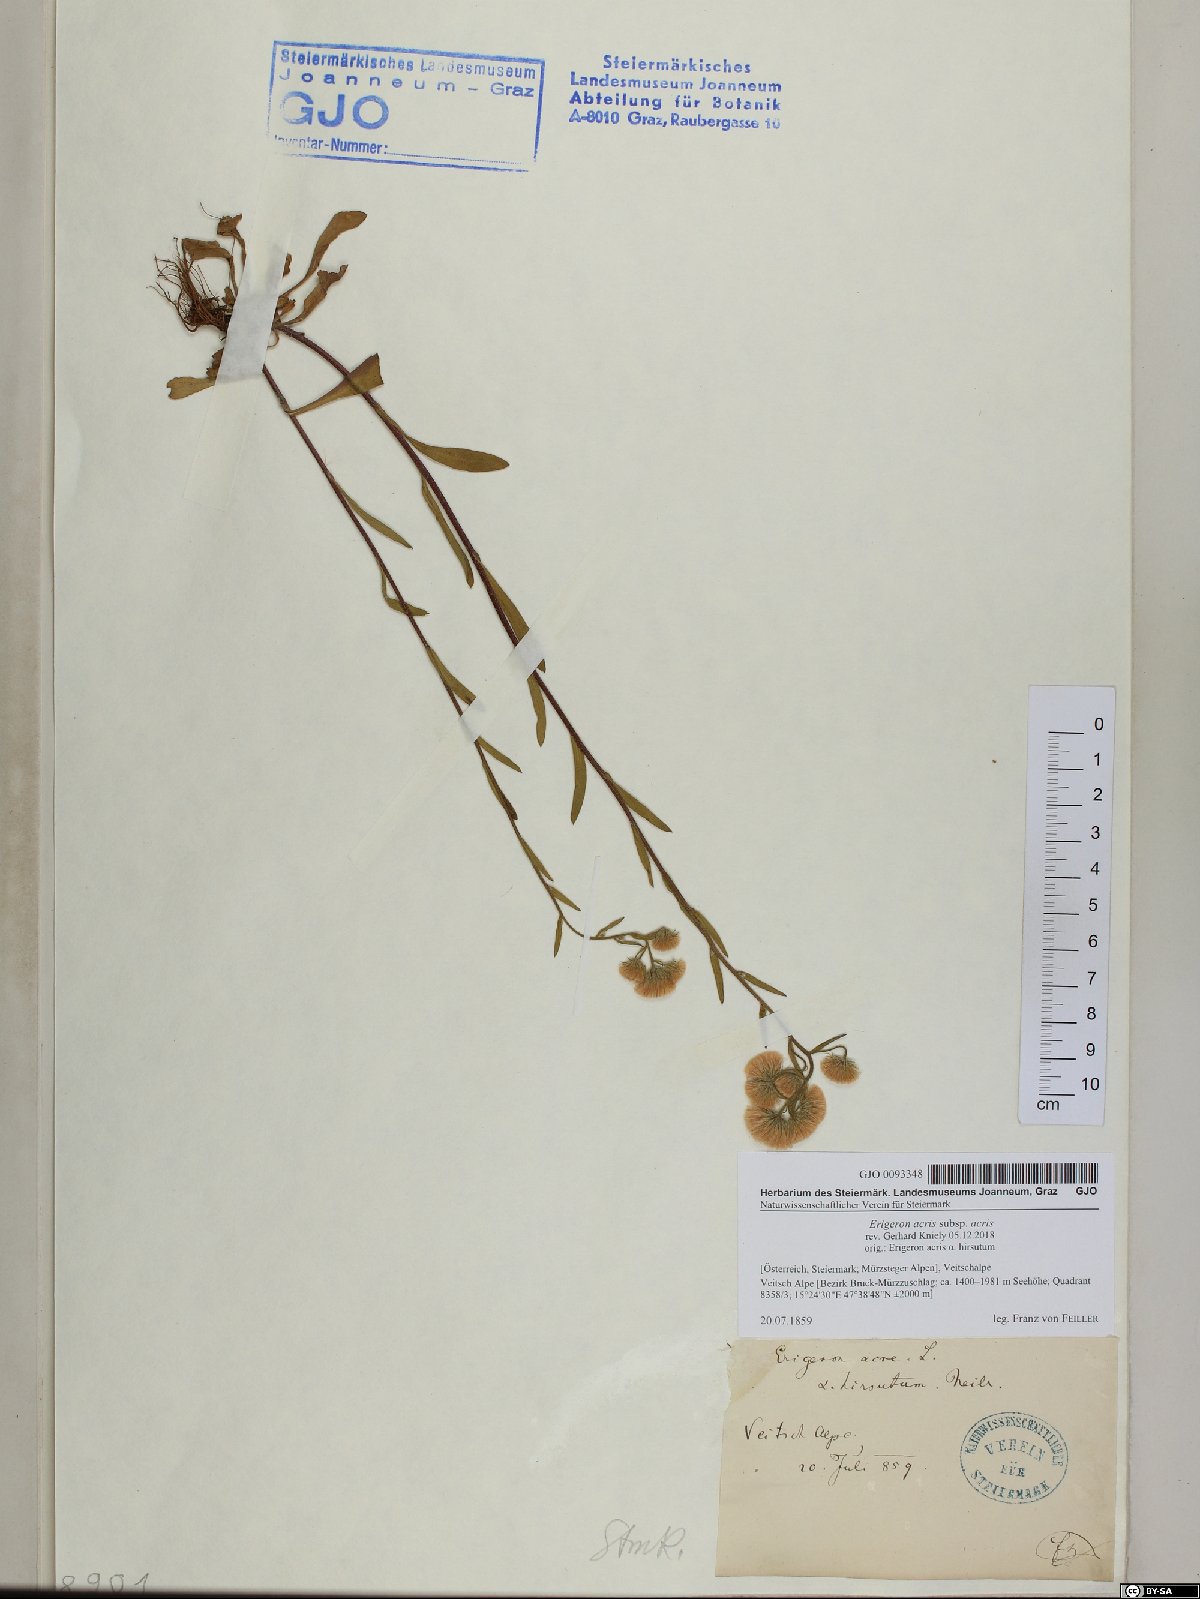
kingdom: Plantae
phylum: Tracheophyta
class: Magnoliopsida
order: Asterales
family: Asteraceae
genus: Erigeron
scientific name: Erigeron acris
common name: Blue fleabane
